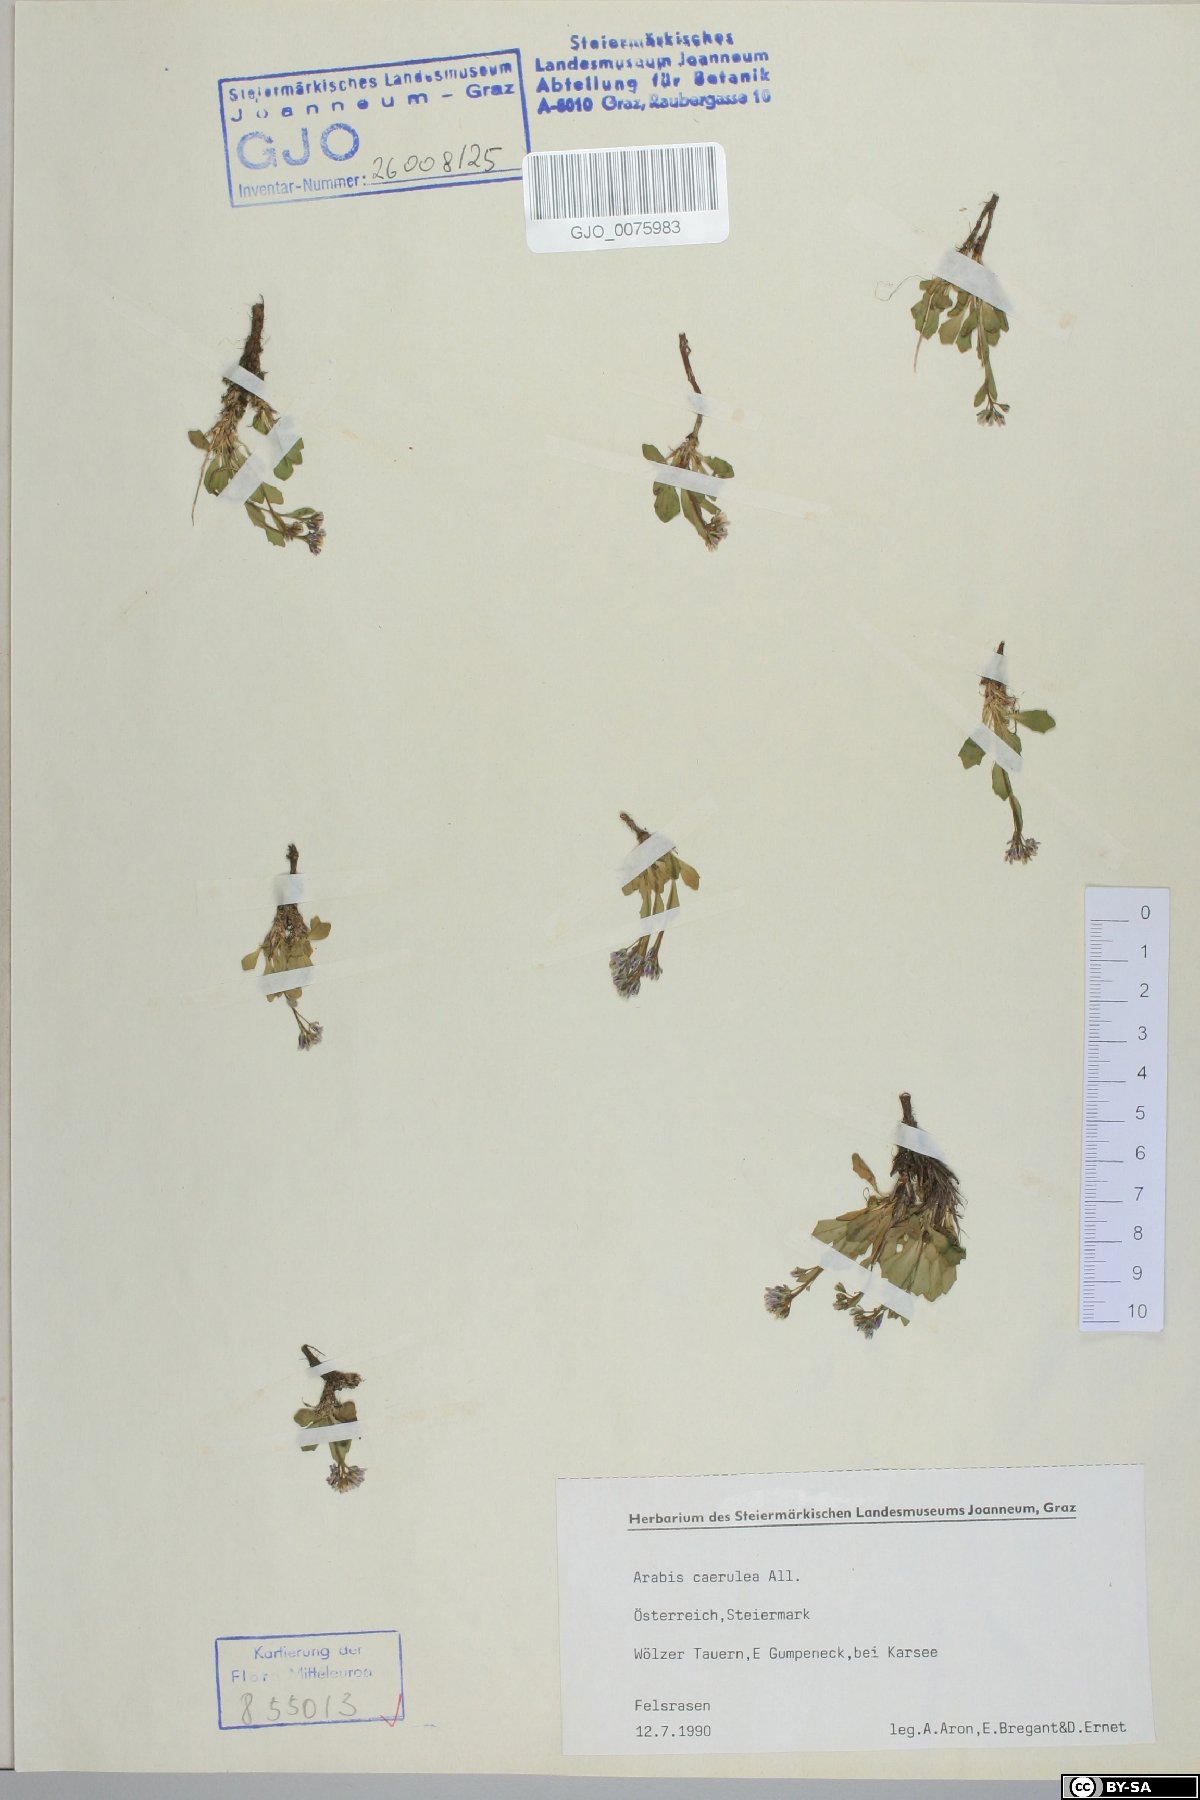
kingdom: Plantae
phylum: Tracheophyta
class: Magnoliopsida
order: Brassicales
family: Brassicaceae
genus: Arabis
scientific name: Arabis caerulea
